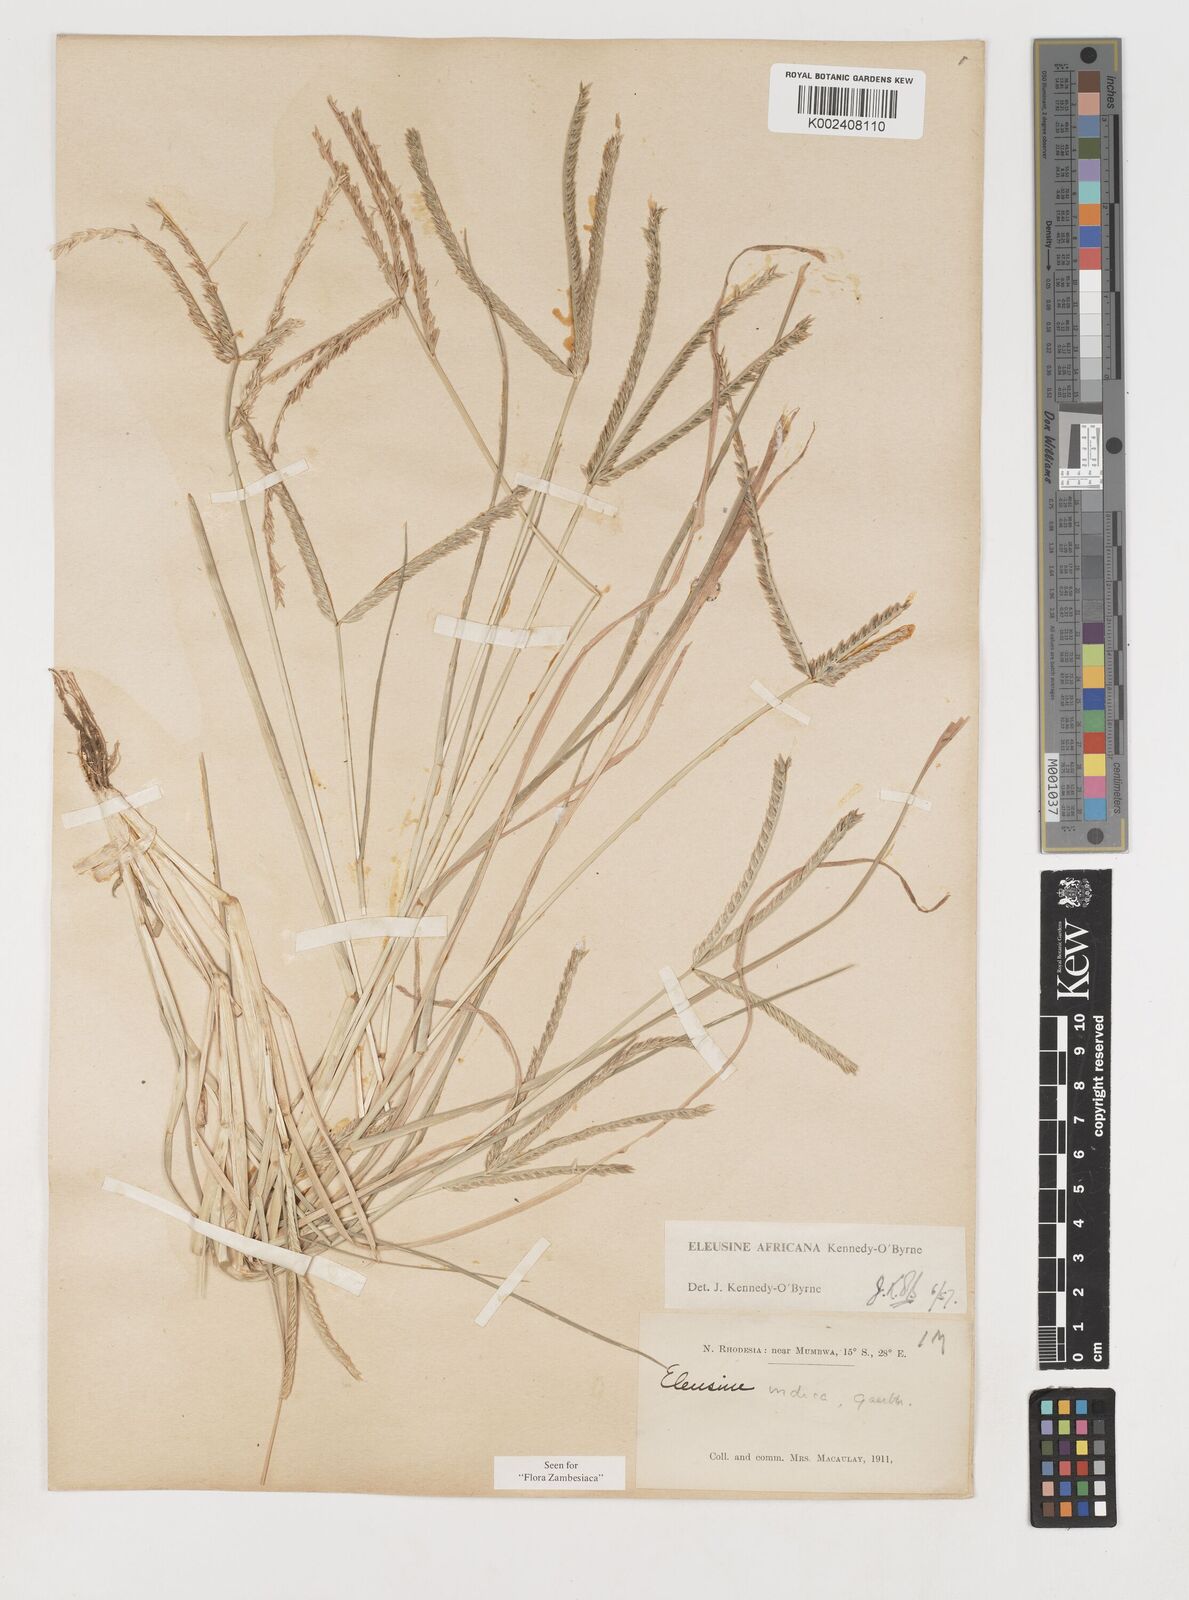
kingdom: Plantae
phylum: Tracheophyta
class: Liliopsida
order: Poales
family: Poaceae
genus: Eleusine
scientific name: Eleusine africana
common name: Wild african finger millet
